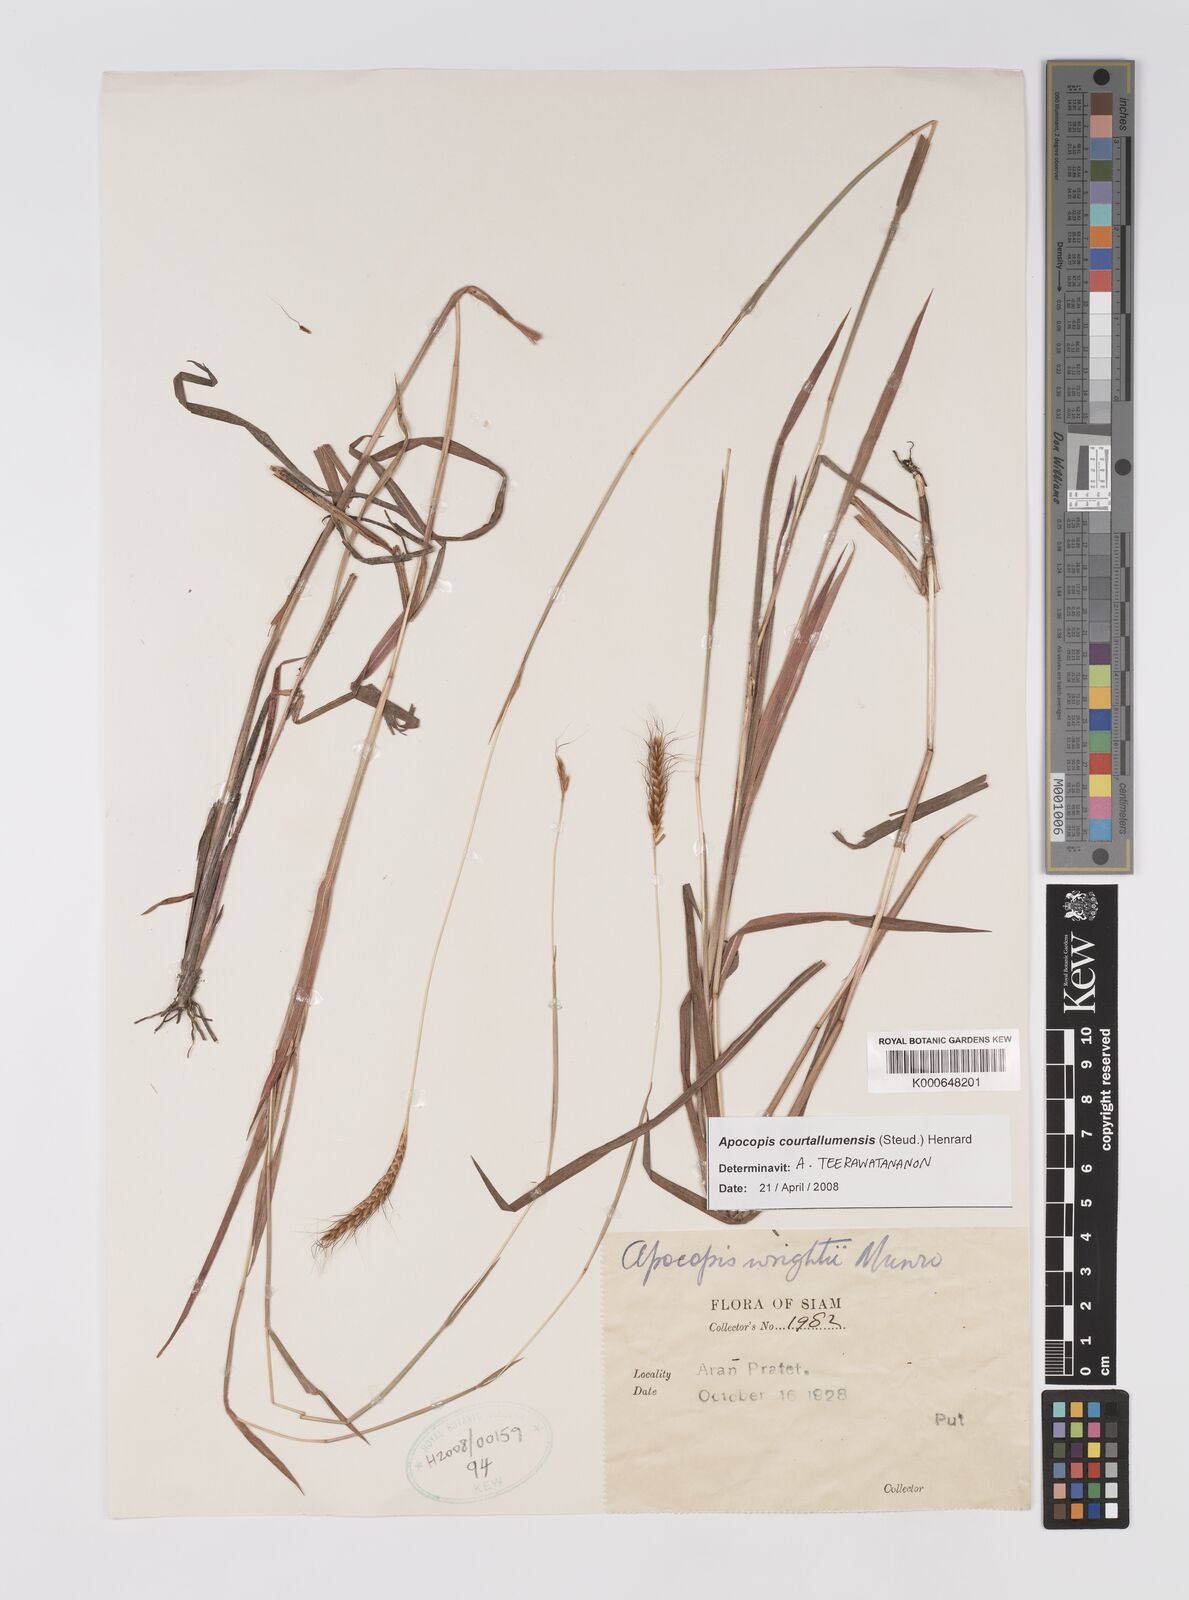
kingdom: Plantae
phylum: Tracheophyta
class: Liliopsida
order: Poales
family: Poaceae
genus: Apocopis
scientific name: Apocopis courtallumensis
